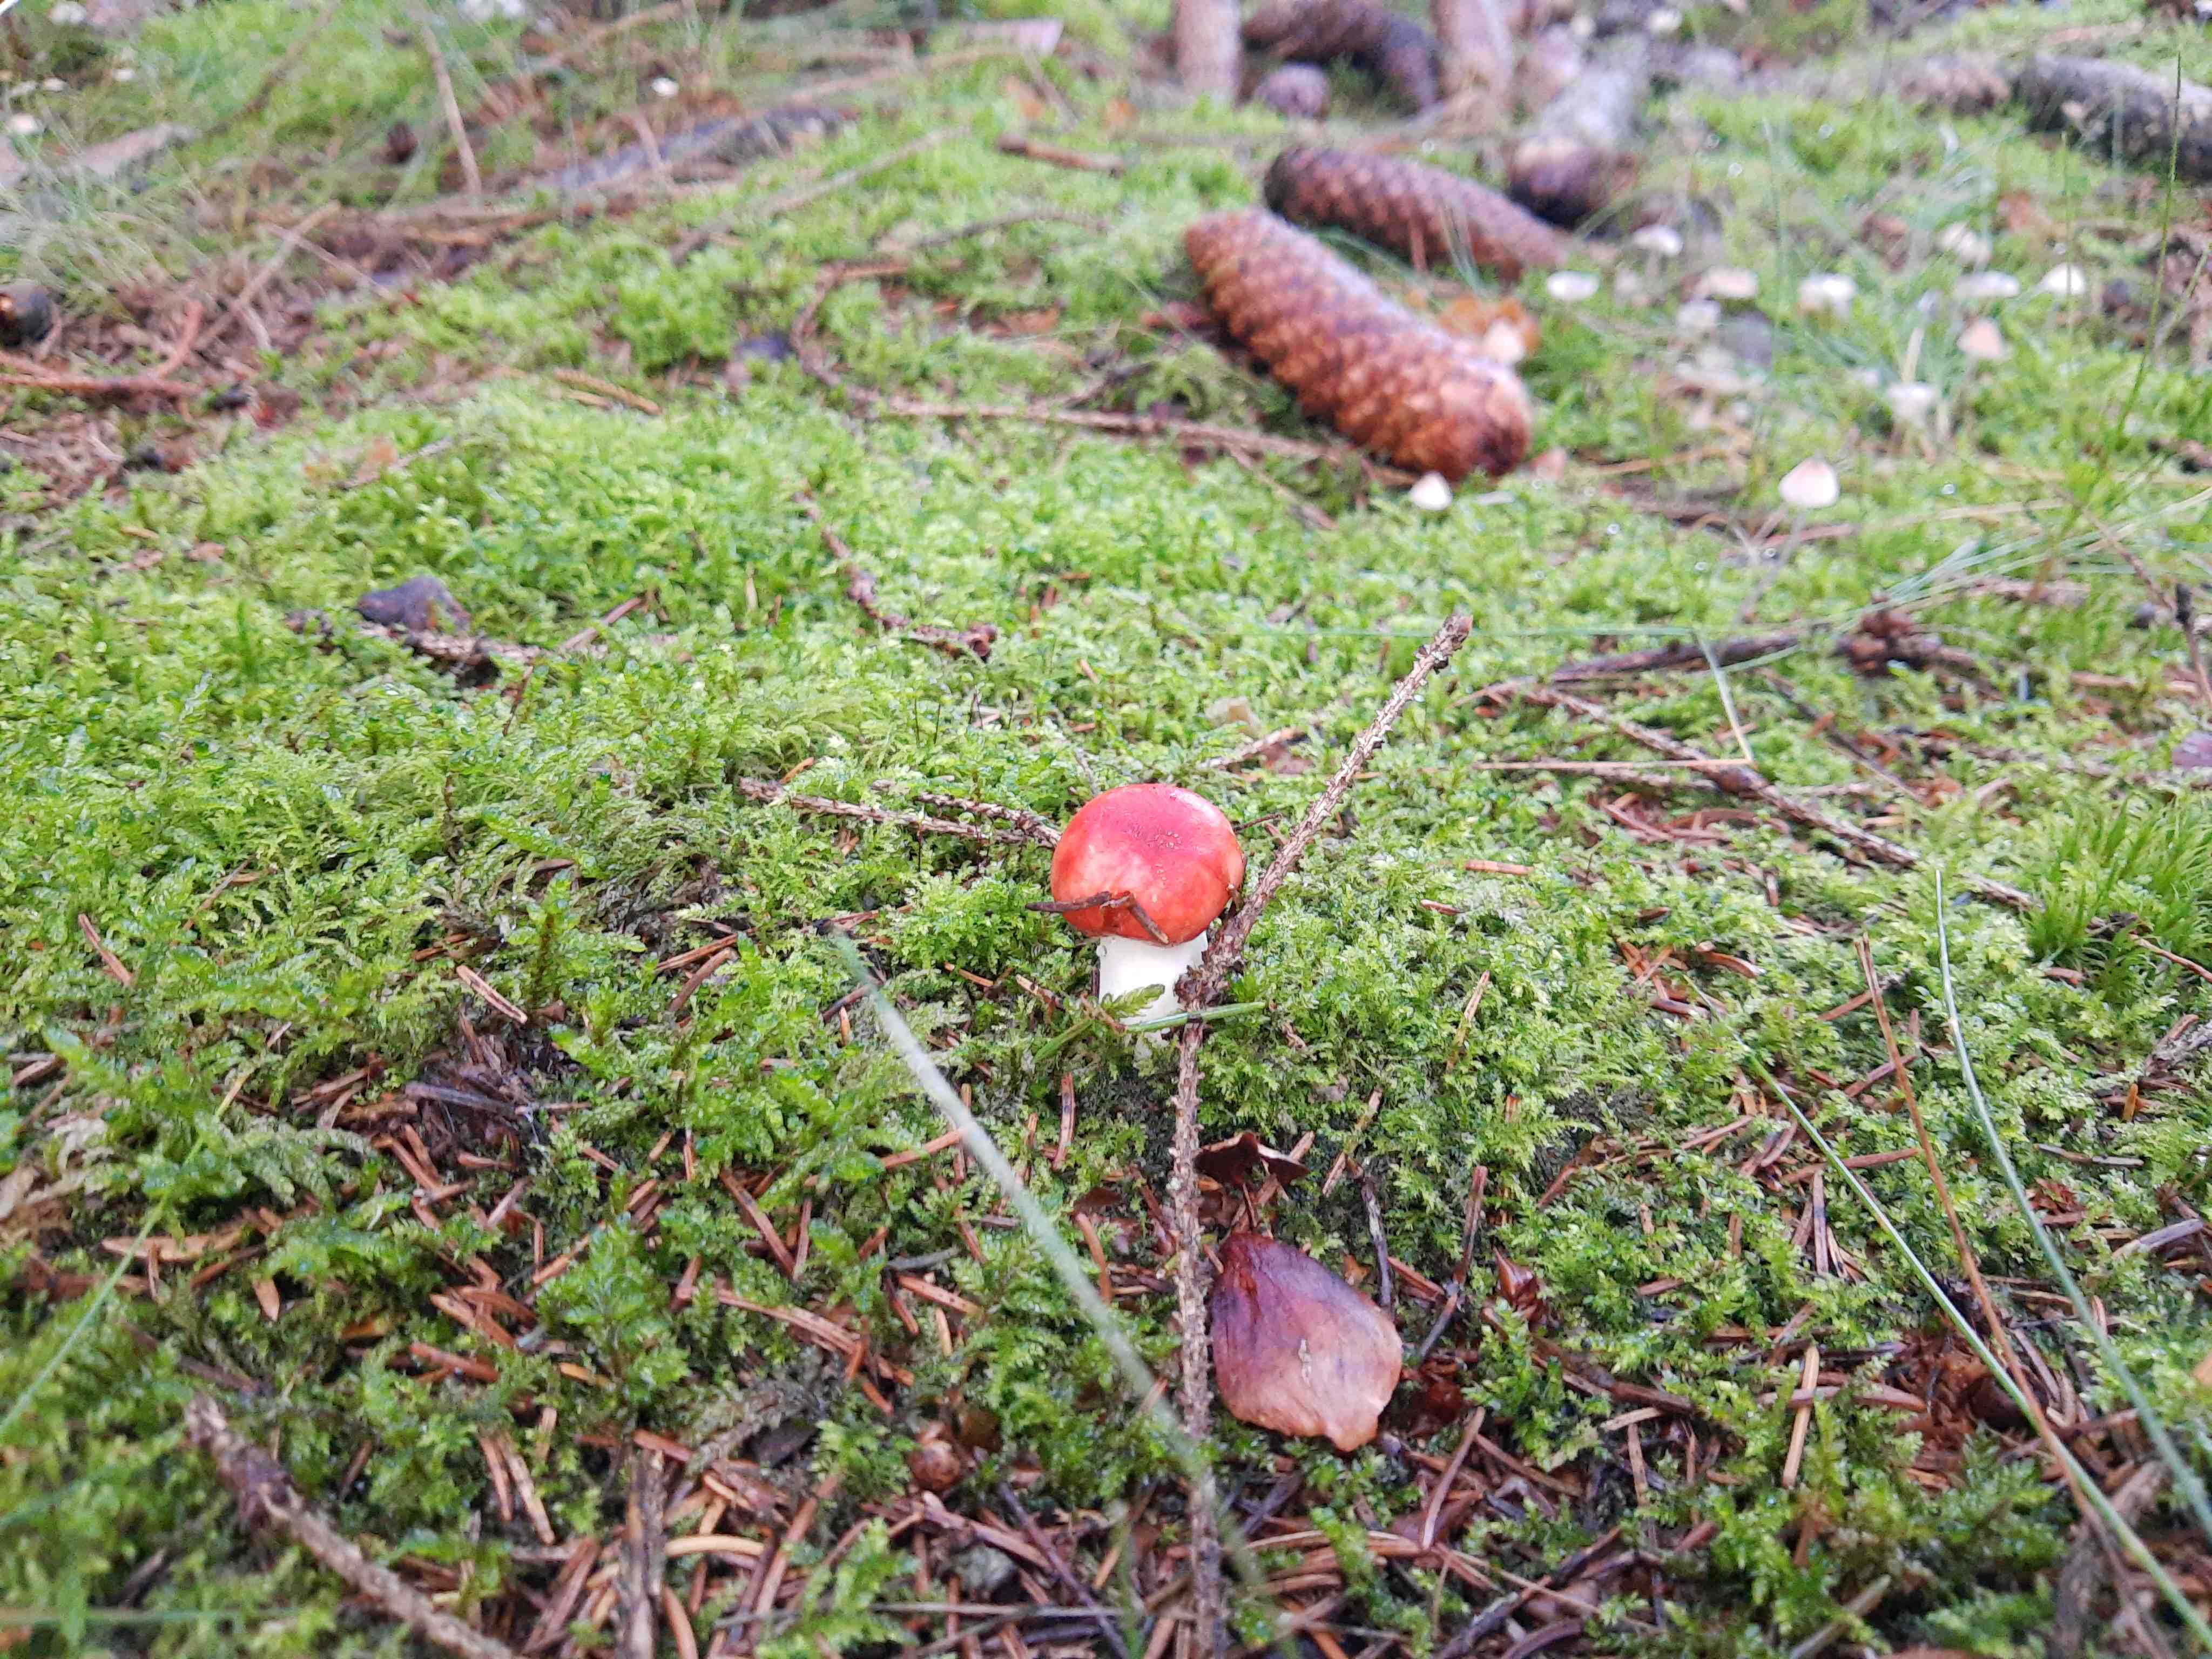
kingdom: Fungi
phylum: Basidiomycota
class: Agaricomycetes
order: Russulales
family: Russulaceae
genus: Russula
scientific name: Russula
